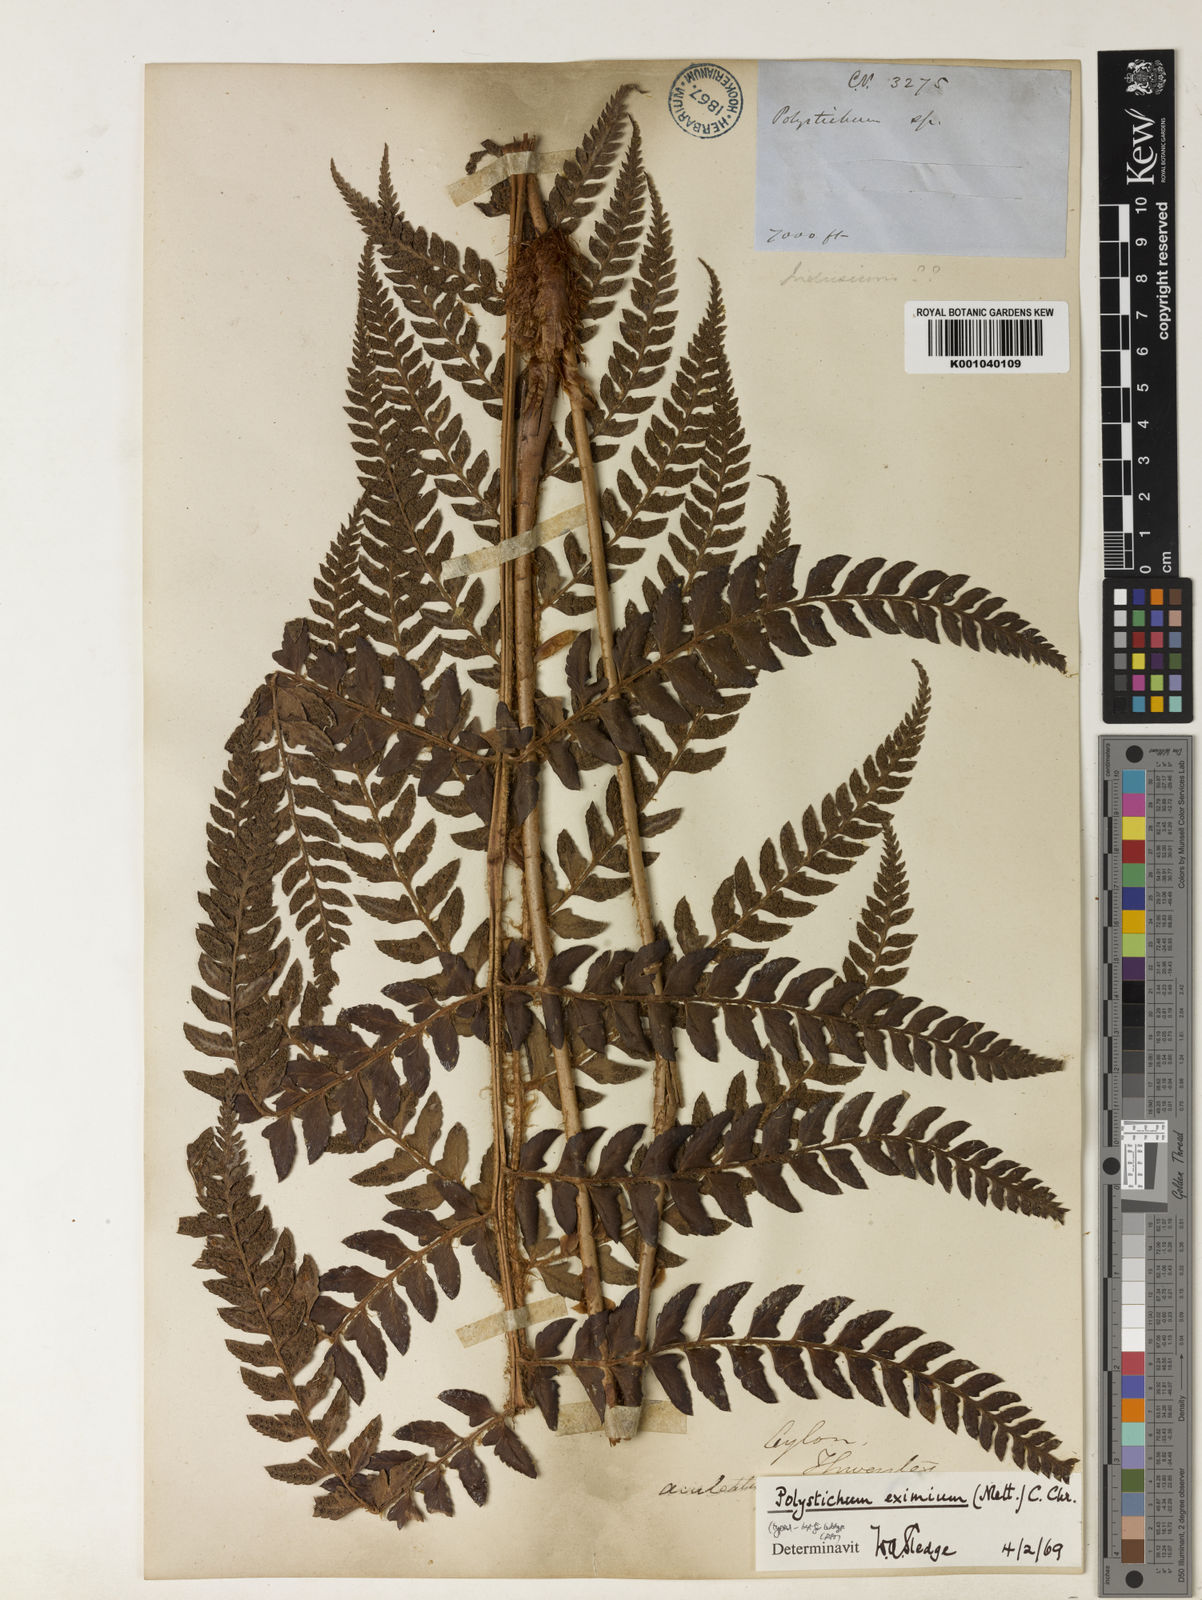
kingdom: Plantae
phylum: Tracheophyta
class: Polypodiopsida
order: Polypodiales
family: Dryopteridaceae
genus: Polystichum
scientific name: Polystichum anomalum
